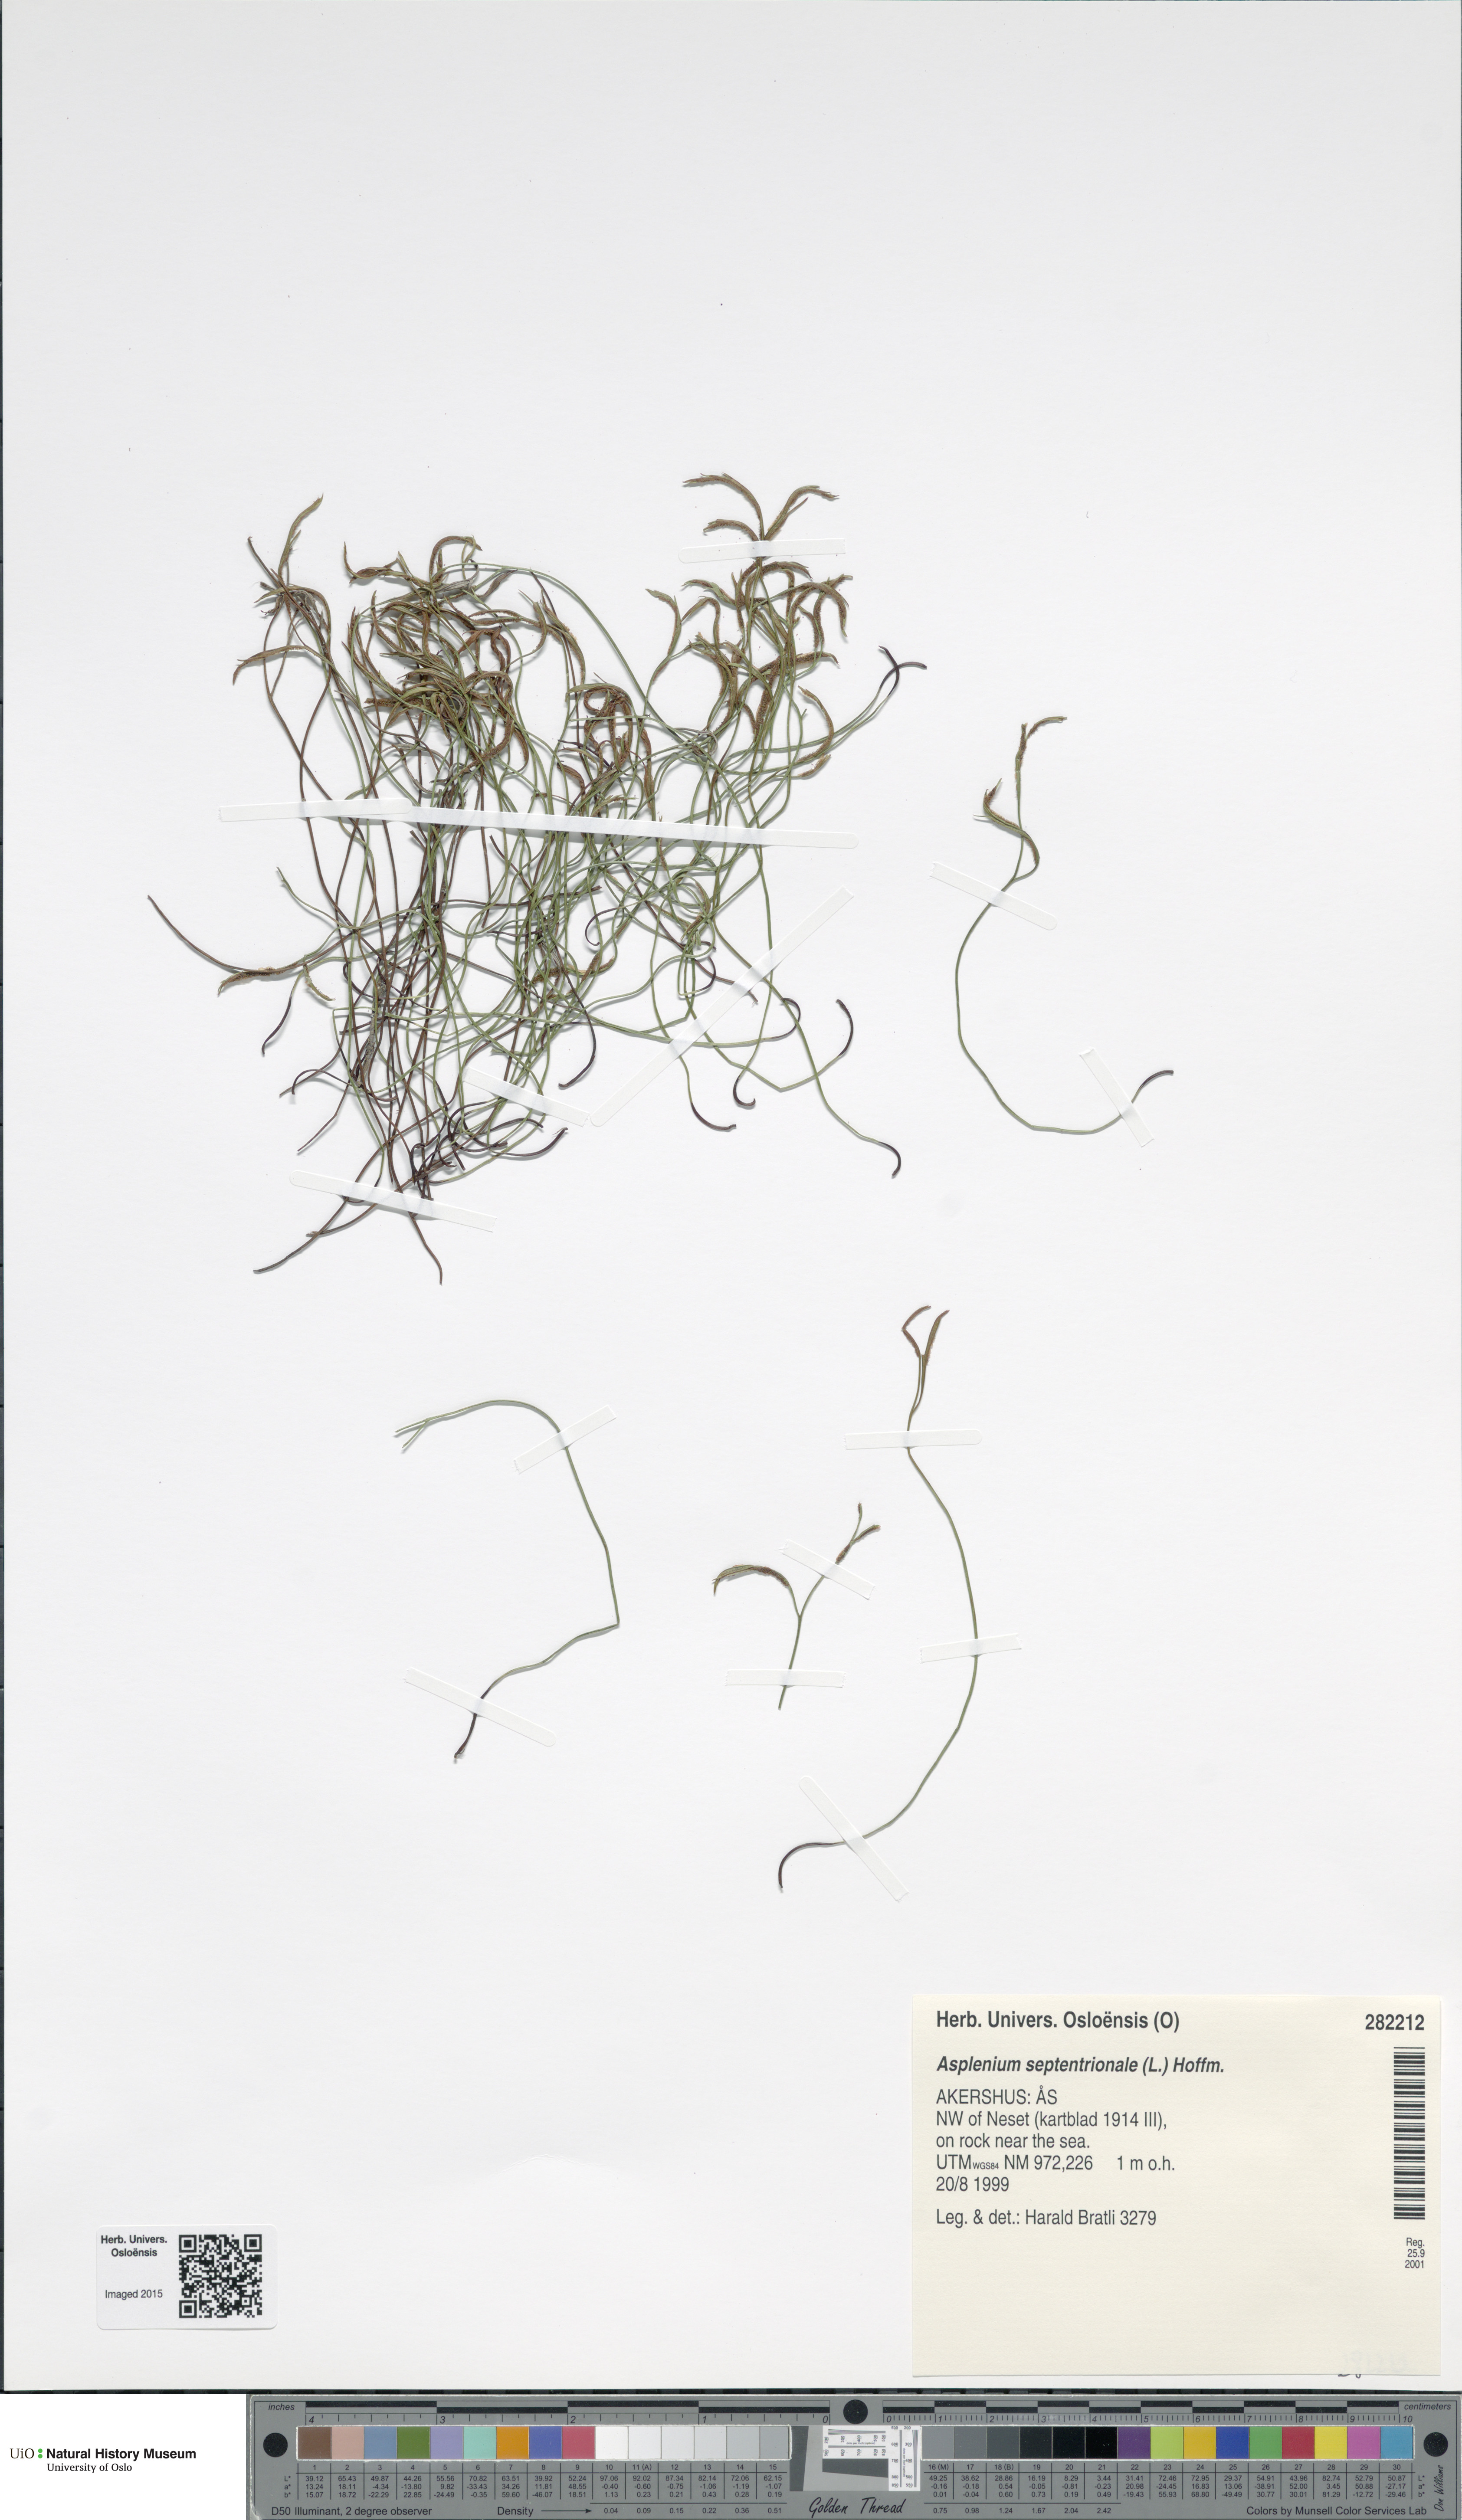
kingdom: Plantae
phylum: Tracheophyta
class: Polypodiopsida
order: Polypodiales
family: Aspleniaceae
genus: Asplenium
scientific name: Asplenium septentrionale
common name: Forked spleenwort
